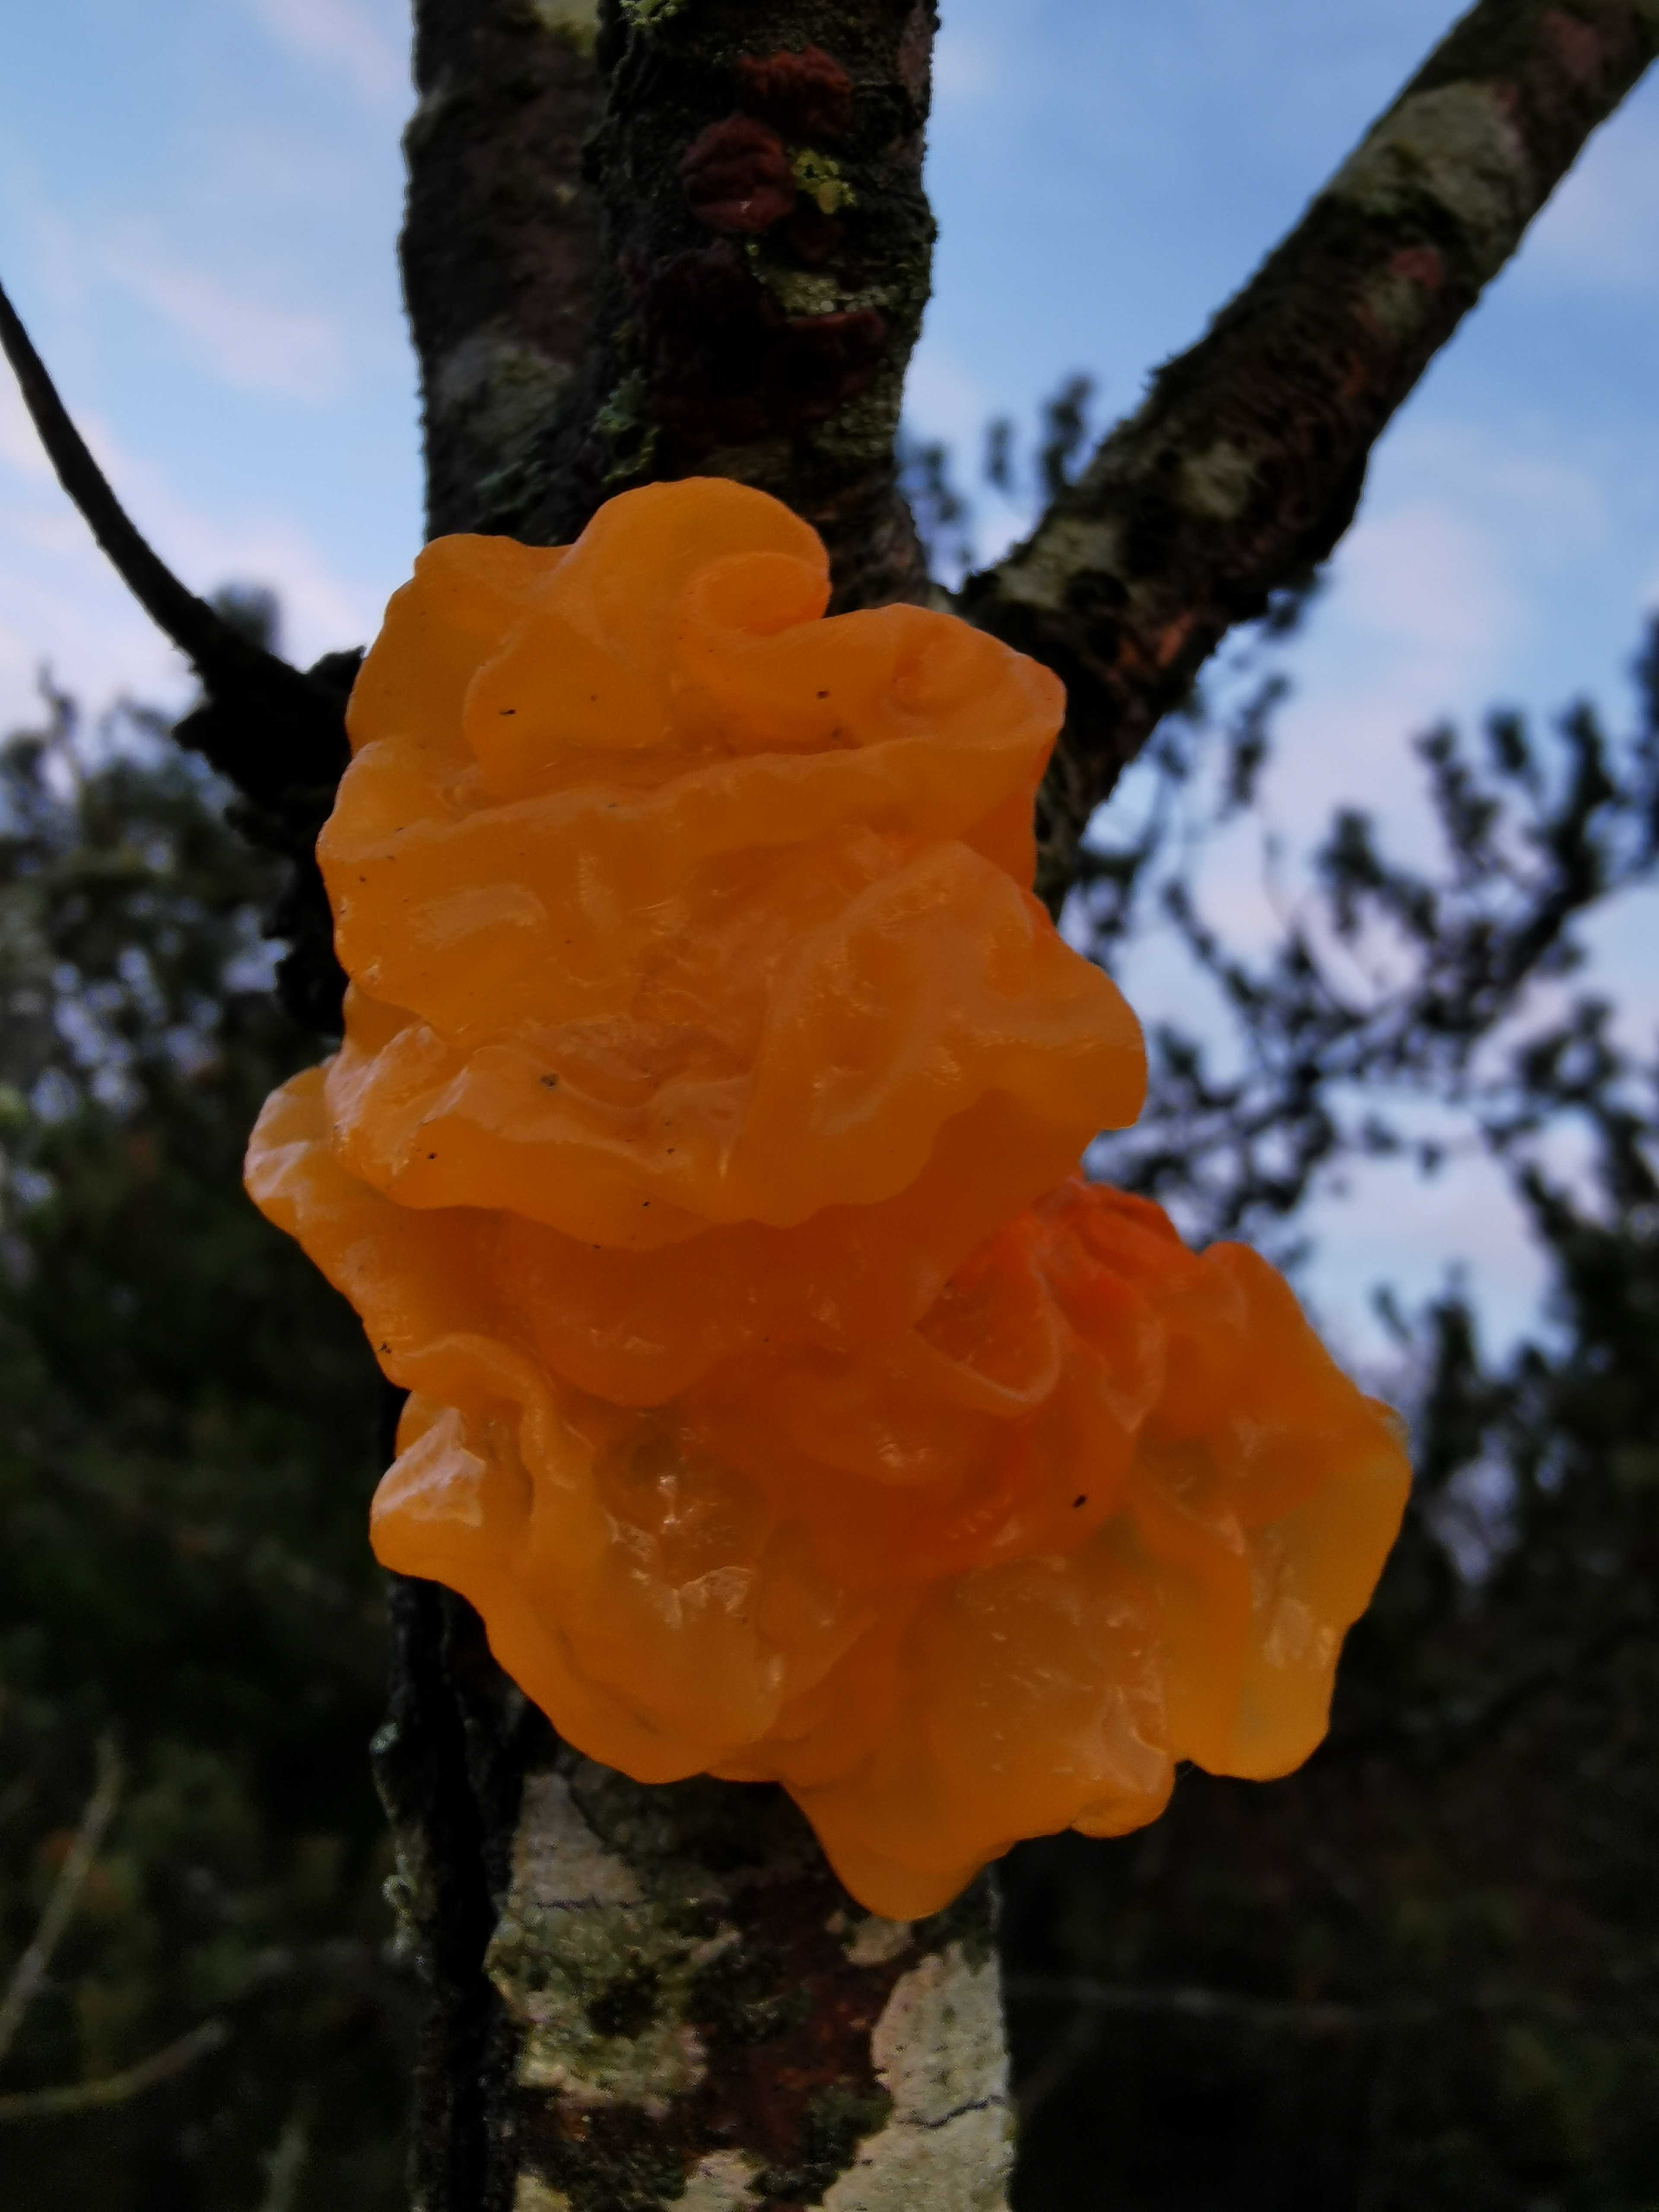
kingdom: Fungi
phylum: Basidiomycota
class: Tremellomycetes
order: Tremellales
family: Tremellaceae
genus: Tremella
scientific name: Tremella mesenterica
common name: gul bævresvamp
